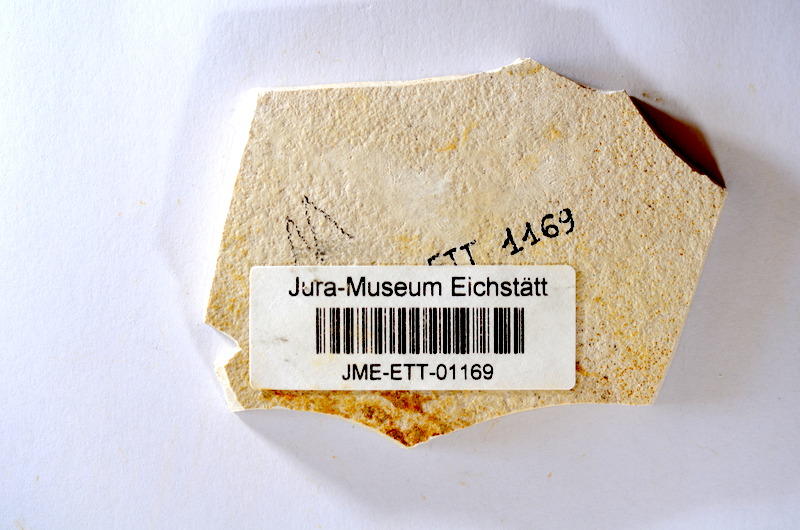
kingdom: Animalia
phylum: Chordata
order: Salmoniformes
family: Orthogonikleithridae
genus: Orthogonikleithrus
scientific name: Orthogonikleithrus hoelli
